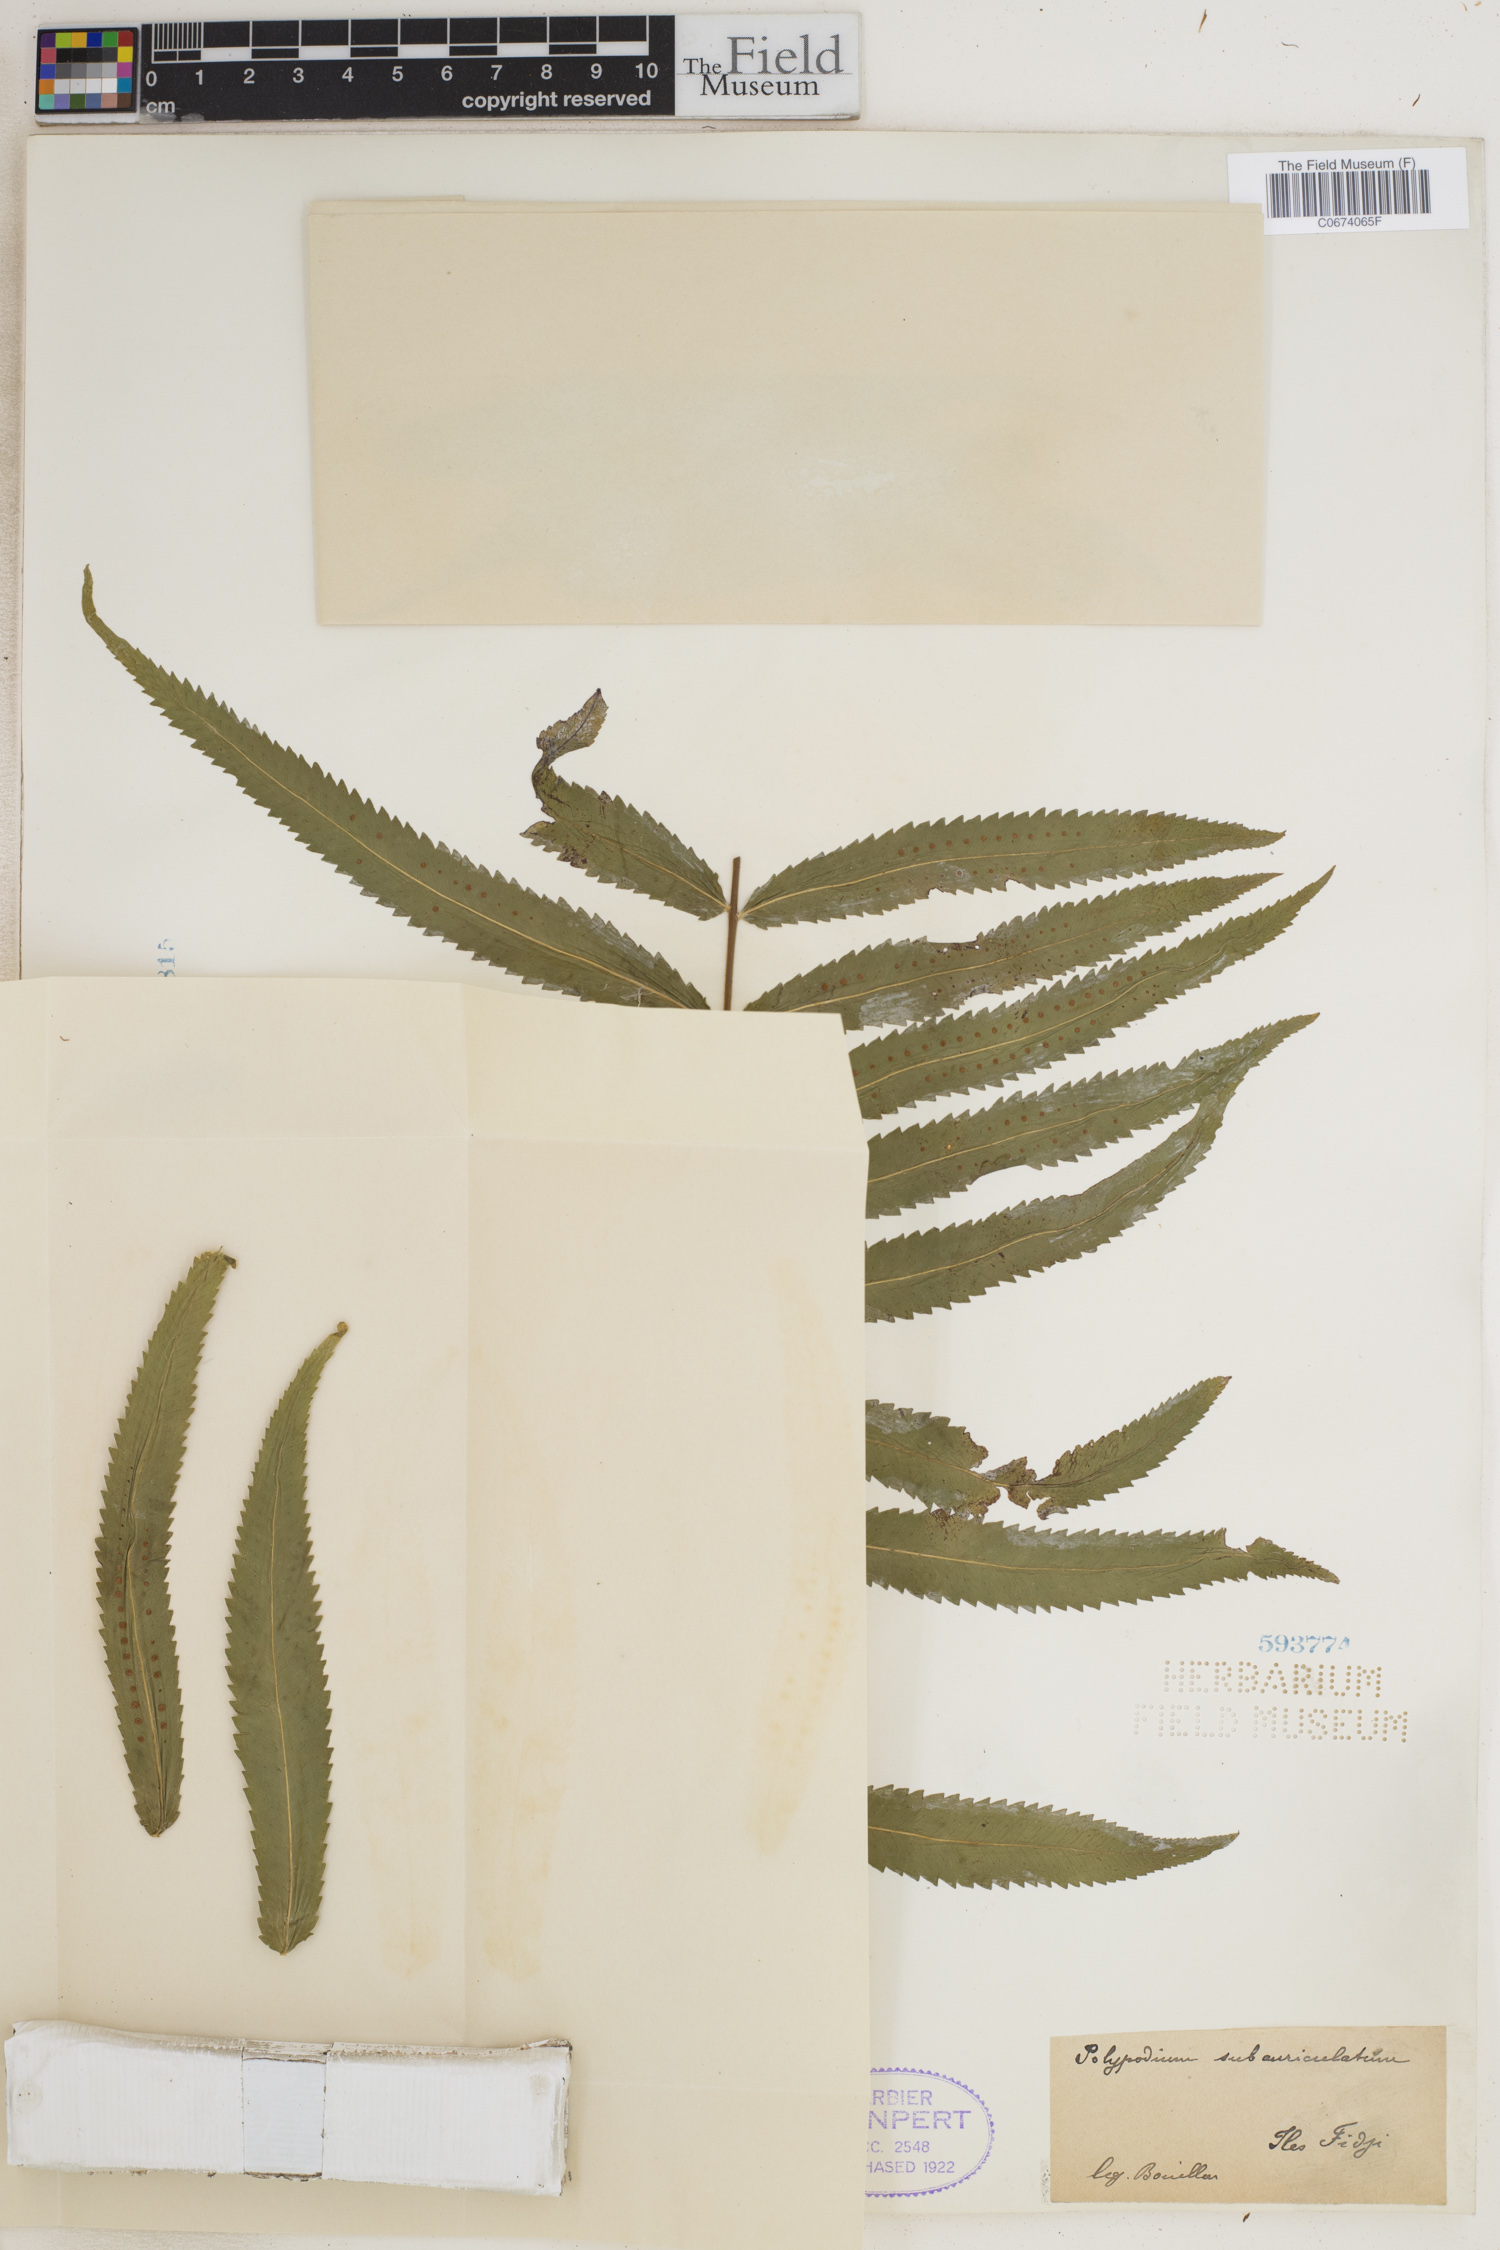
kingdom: Plantae
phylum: Tracheophyta
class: Polypodiopsida
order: Polypodiales
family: Polypodiaceae
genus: Goniophlebium
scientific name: Goniophlebium subauriculatum
